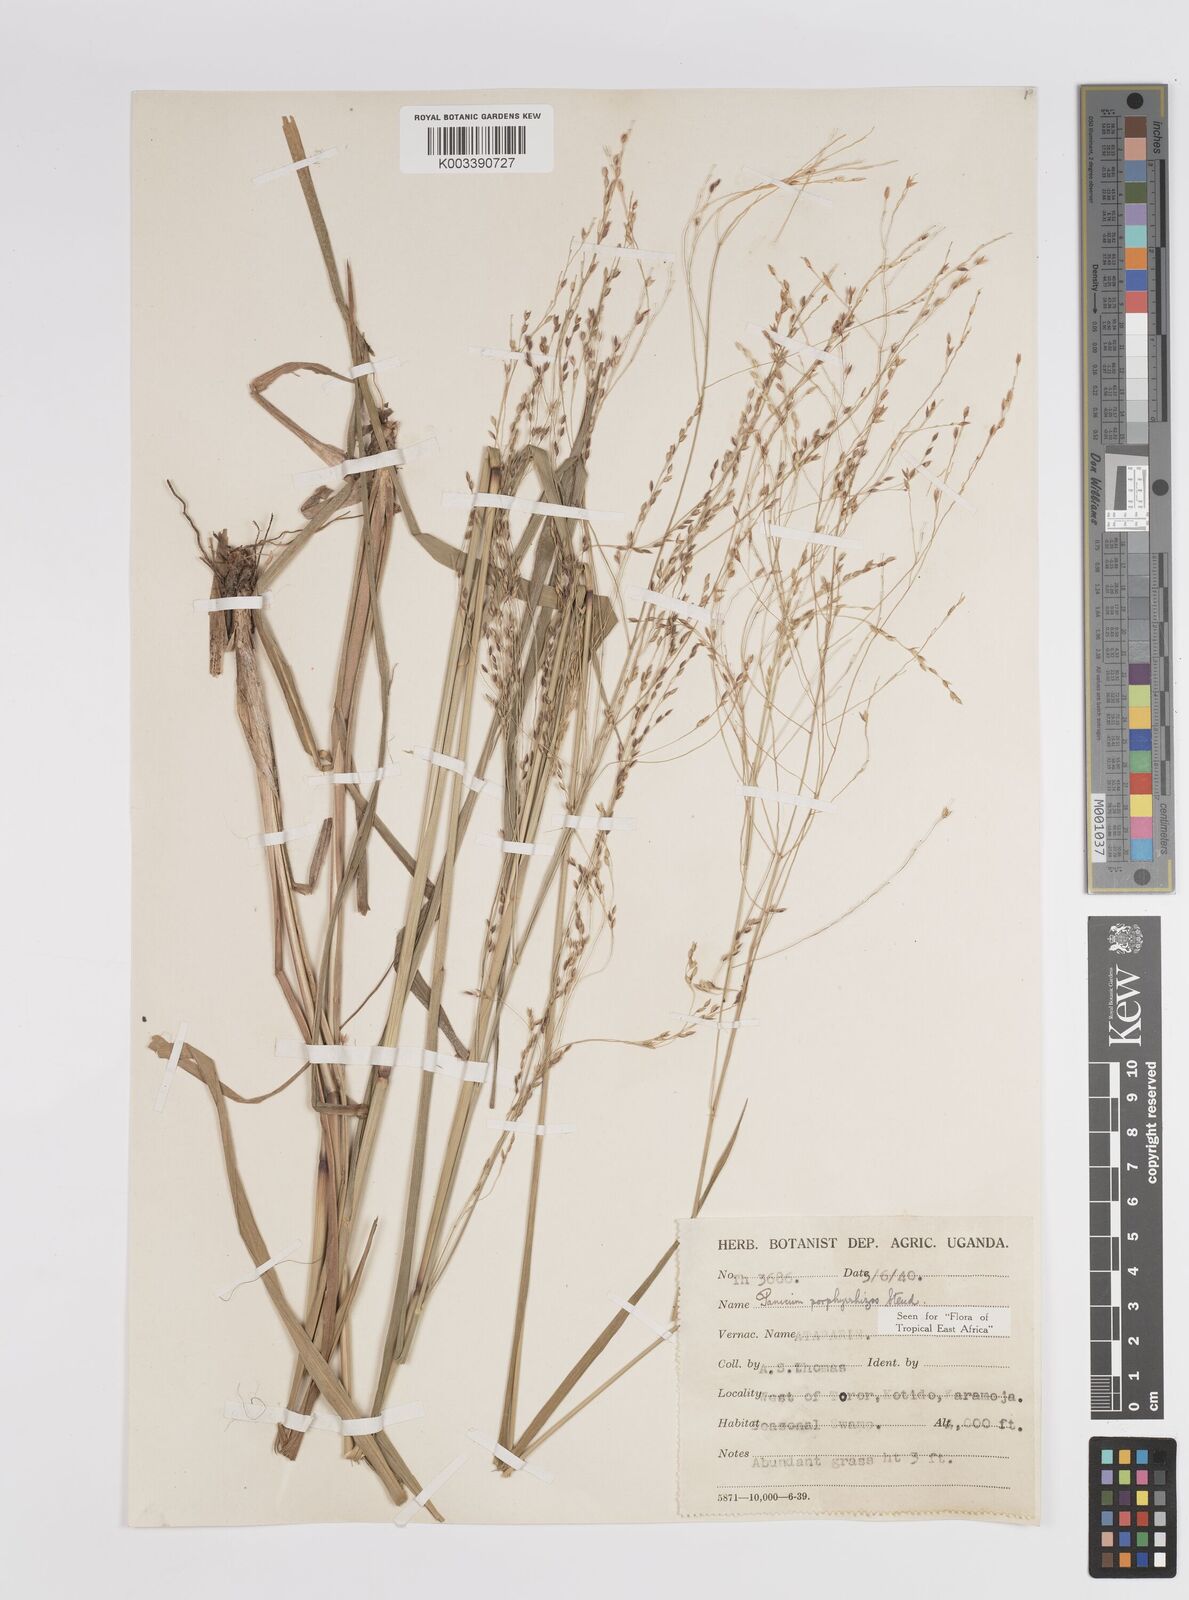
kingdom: Plantae
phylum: Tracheophyta
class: Liliopsida
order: Poales
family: Poaceae
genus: Panicum
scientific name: Panicum porphyrrhizos
